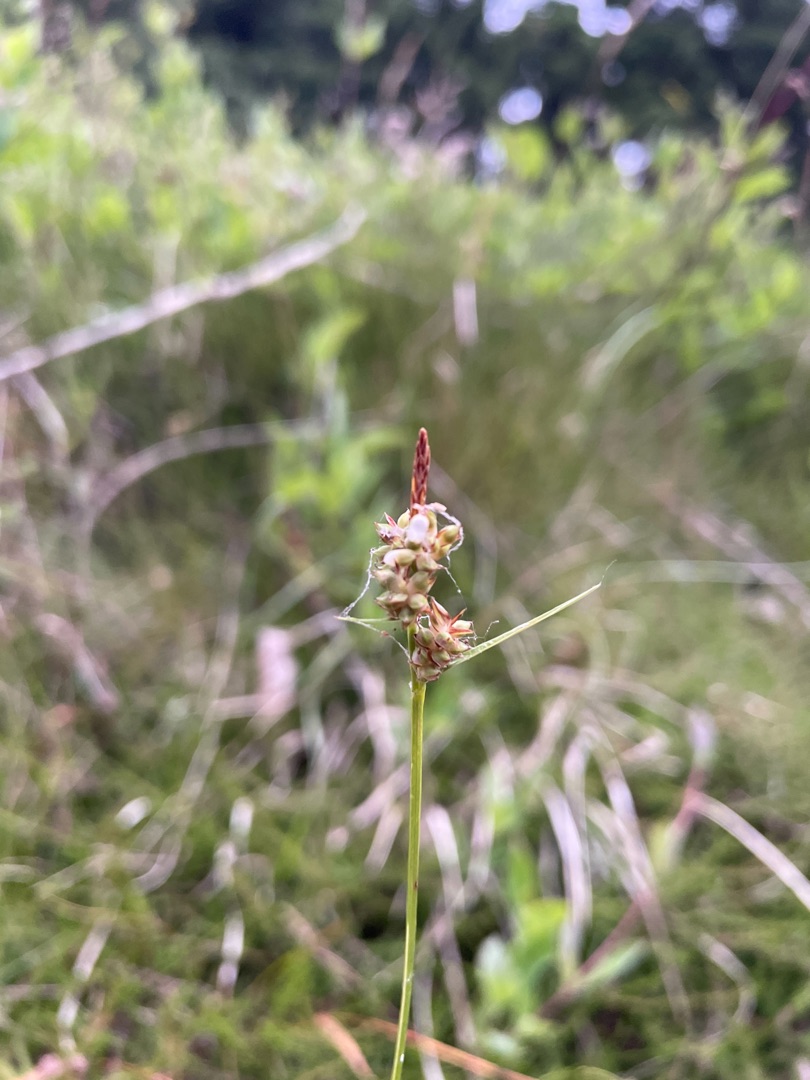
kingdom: Plantae
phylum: Tracheophyta
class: Liliopsida
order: Poales
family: Cyperaceae
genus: Carex
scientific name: Carex pilulifera
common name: Pille-star
